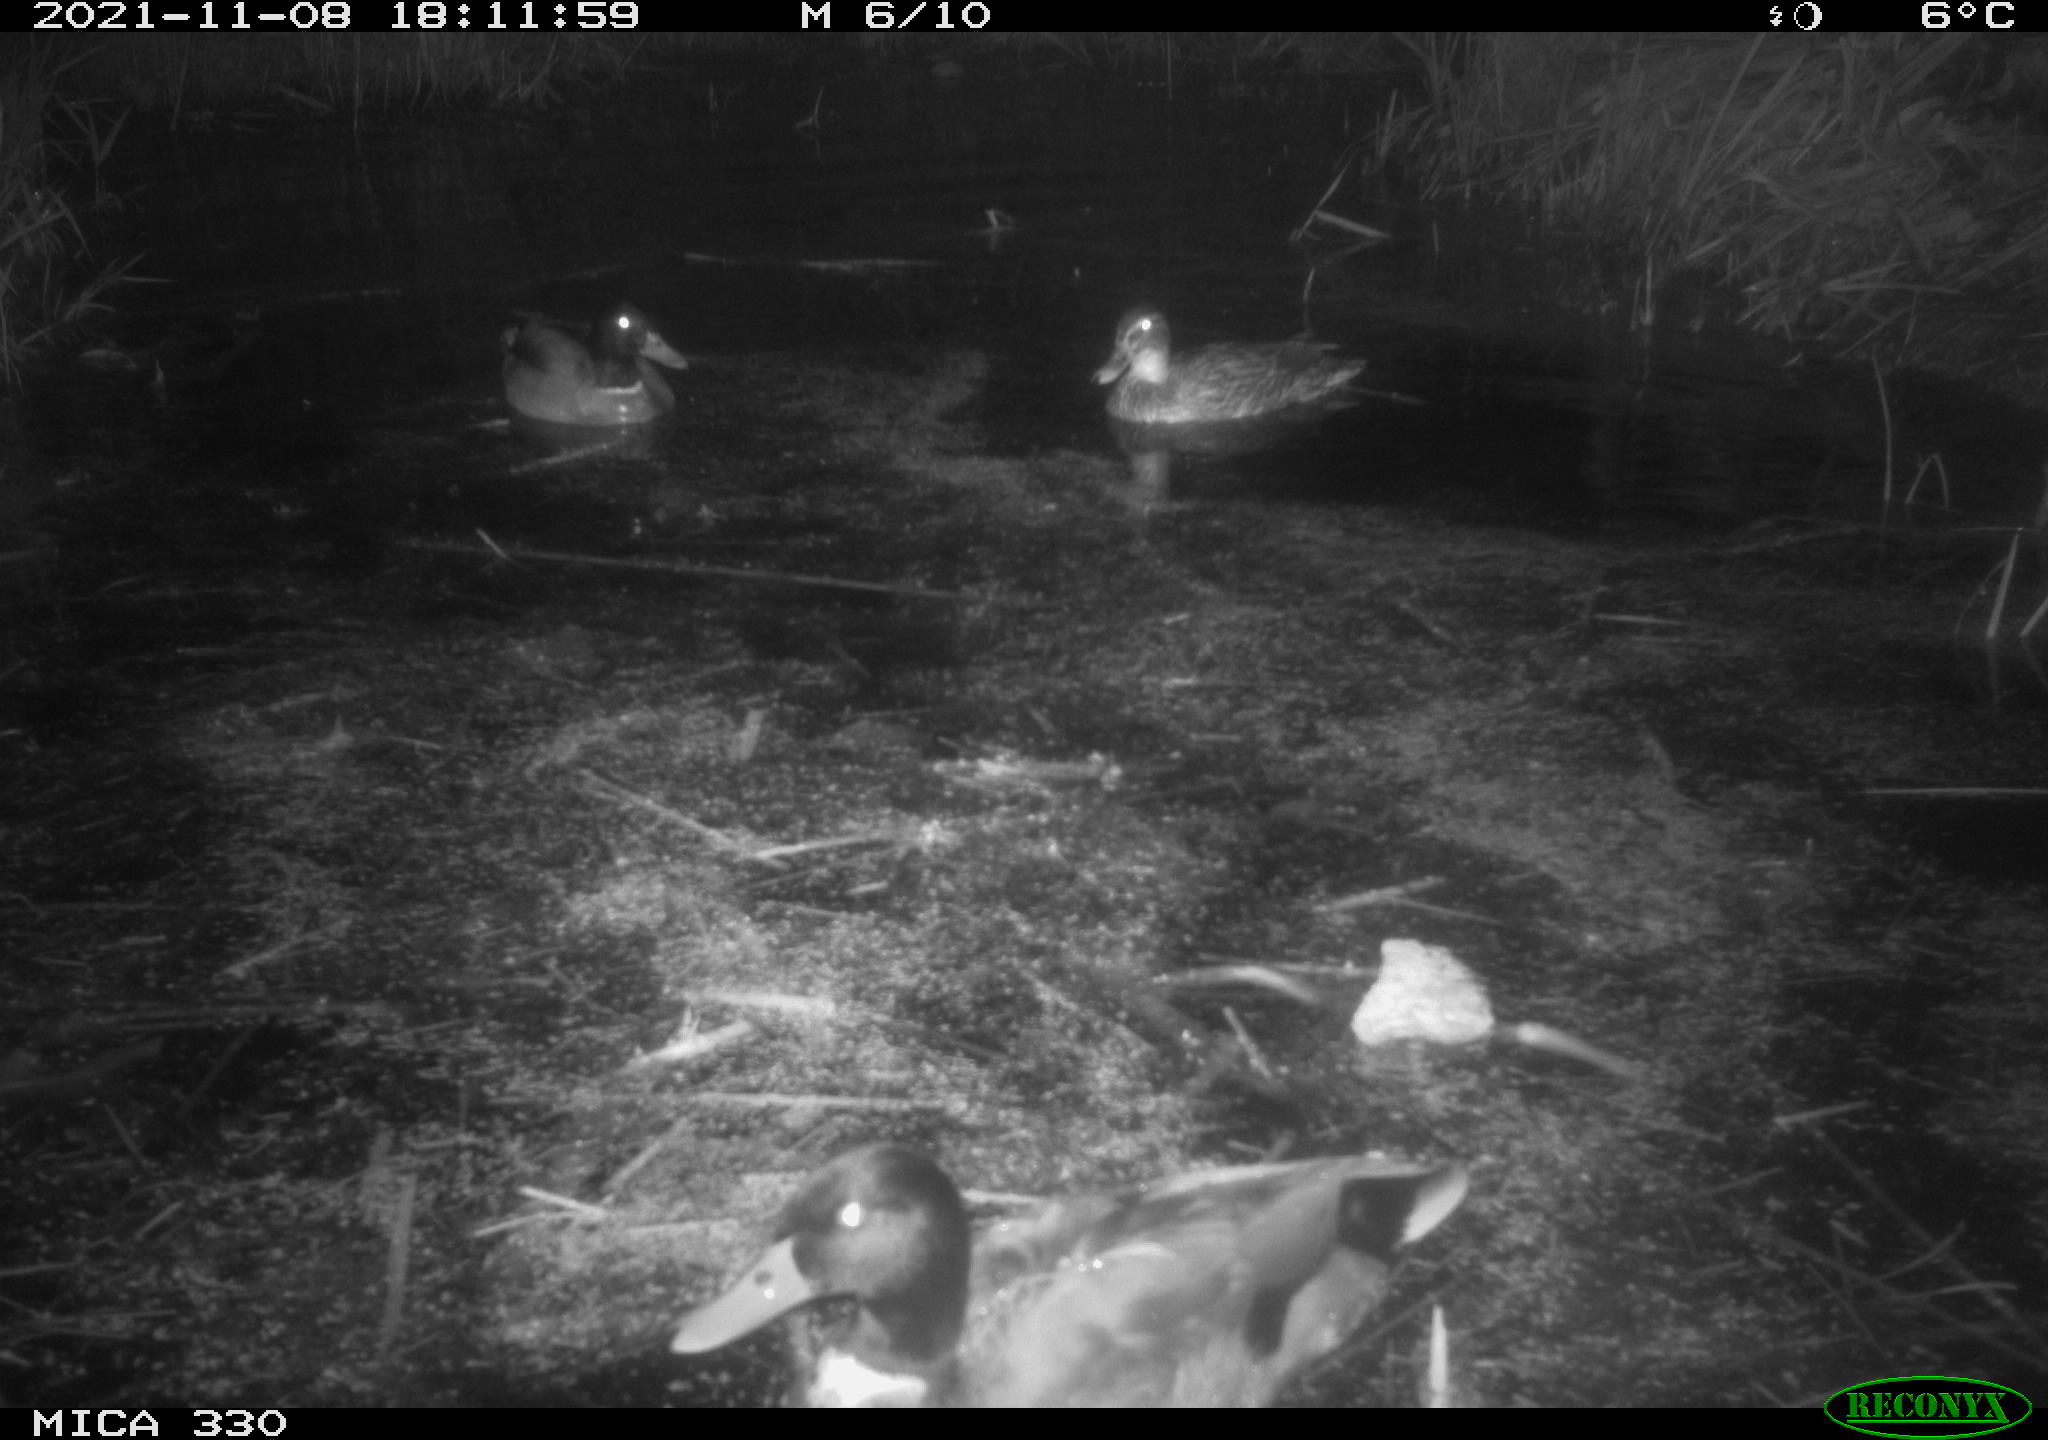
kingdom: Animalia
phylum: Chordata
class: Aves
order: Anseriformes
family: Anatidae
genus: Anas
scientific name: Anas platyrhynchos
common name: Mallard
